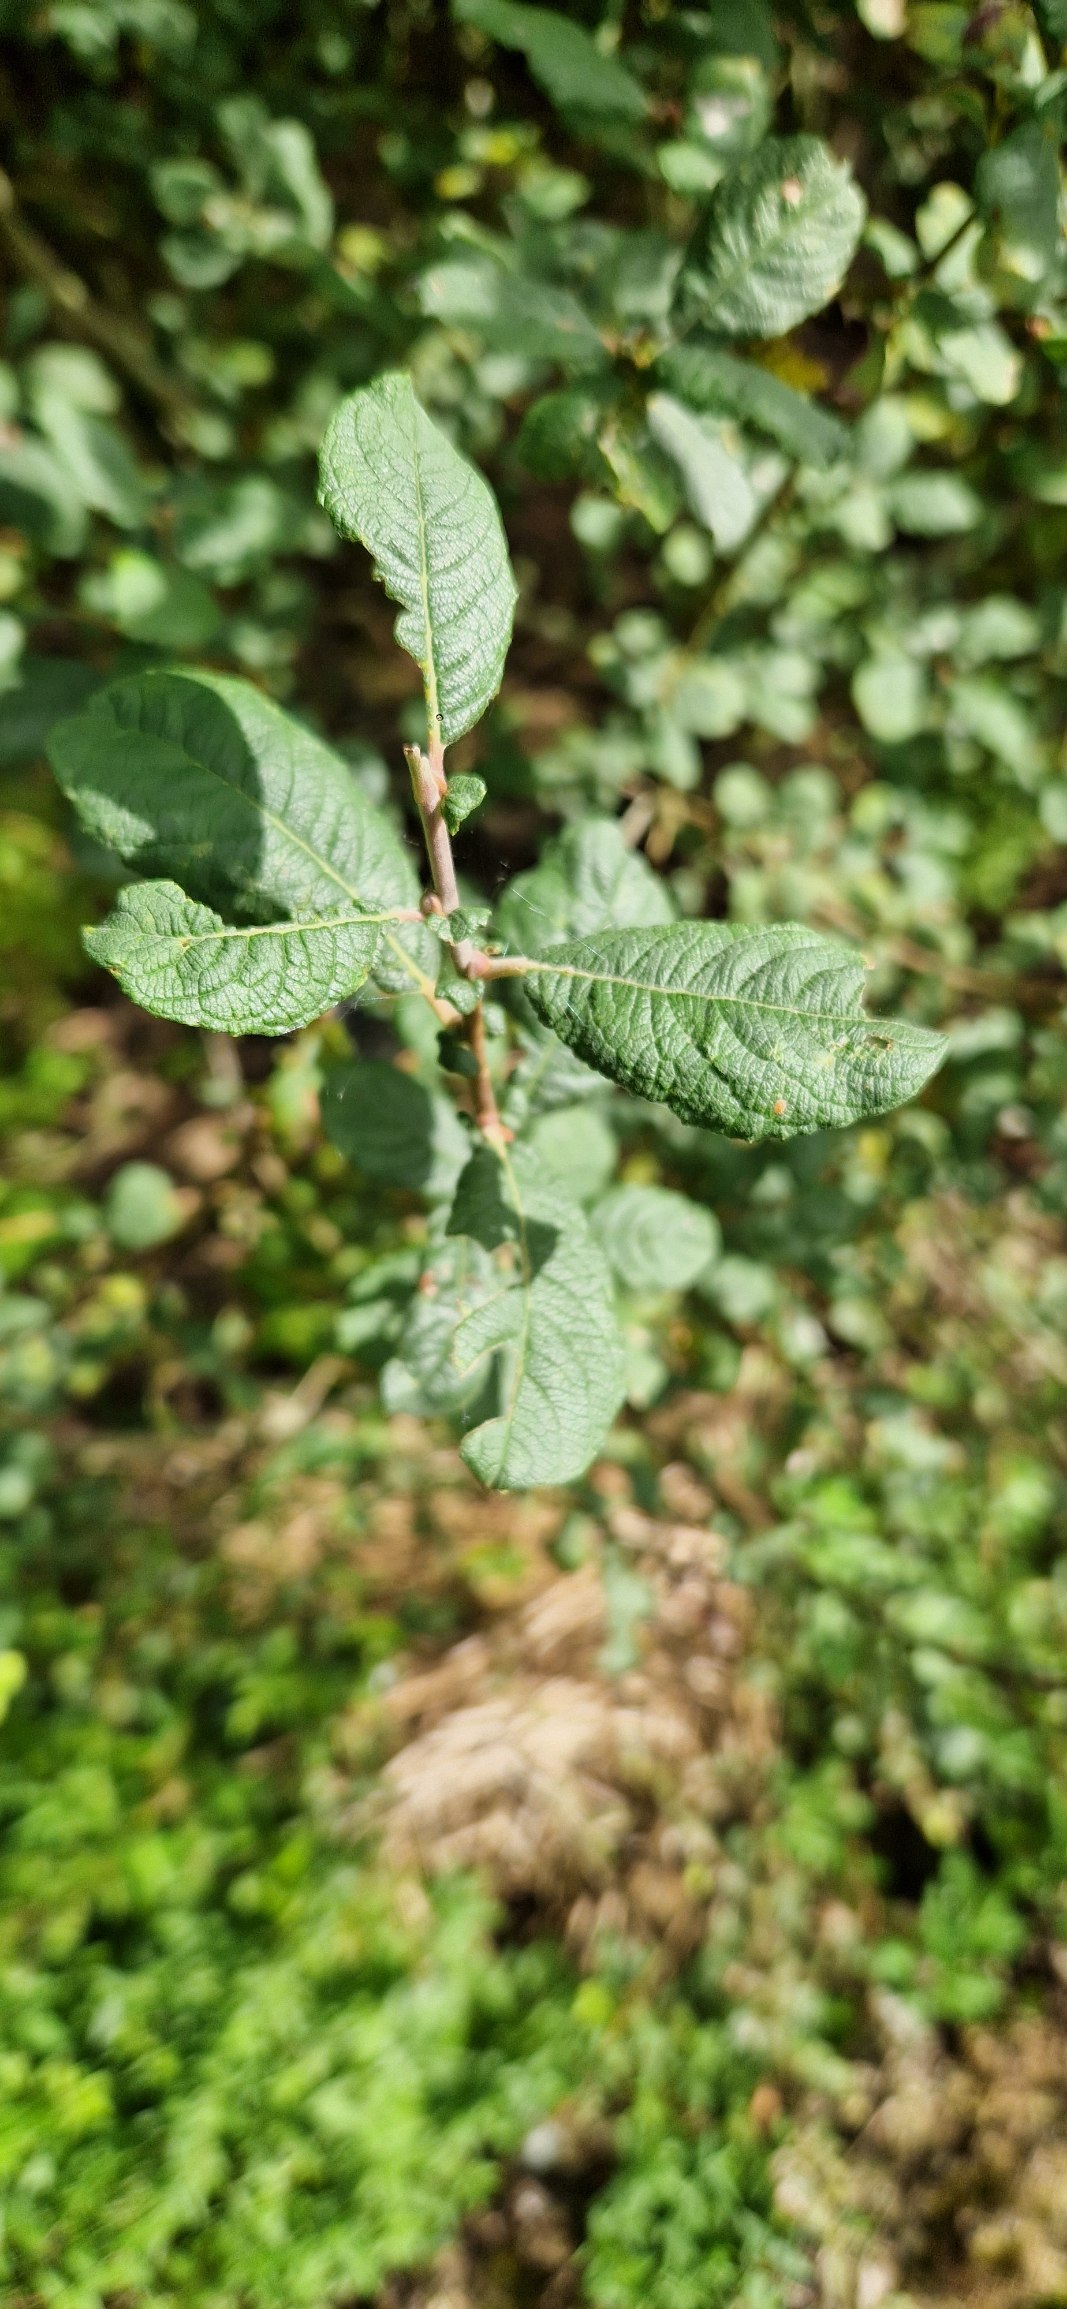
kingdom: Plantae
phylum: Tracheophyta
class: Magnoliopsida
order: Malpighiales
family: Salicaceae
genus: Salix
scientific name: Salix aurita
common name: Øret pil
